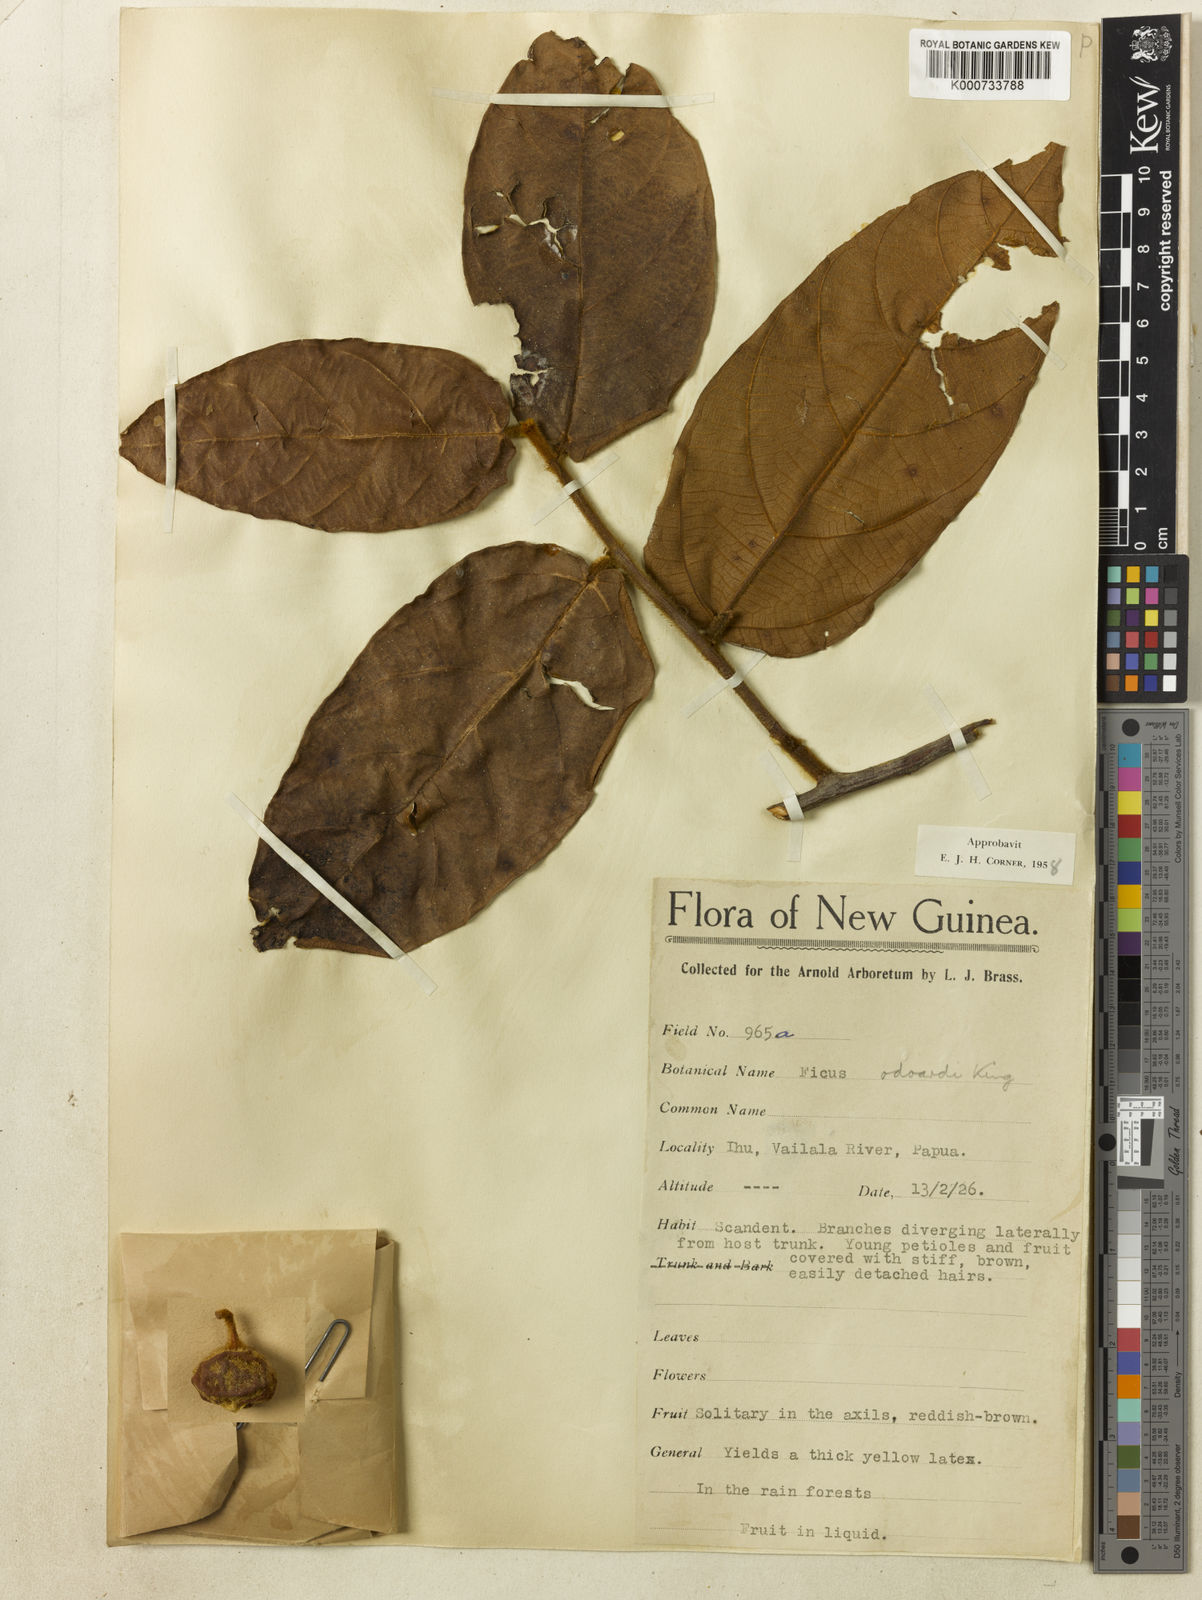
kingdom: Plantae
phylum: Tracheophyta
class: Magnoliopsida
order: Rosales
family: Moraceae
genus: Ficus
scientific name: Ficus odoardi
